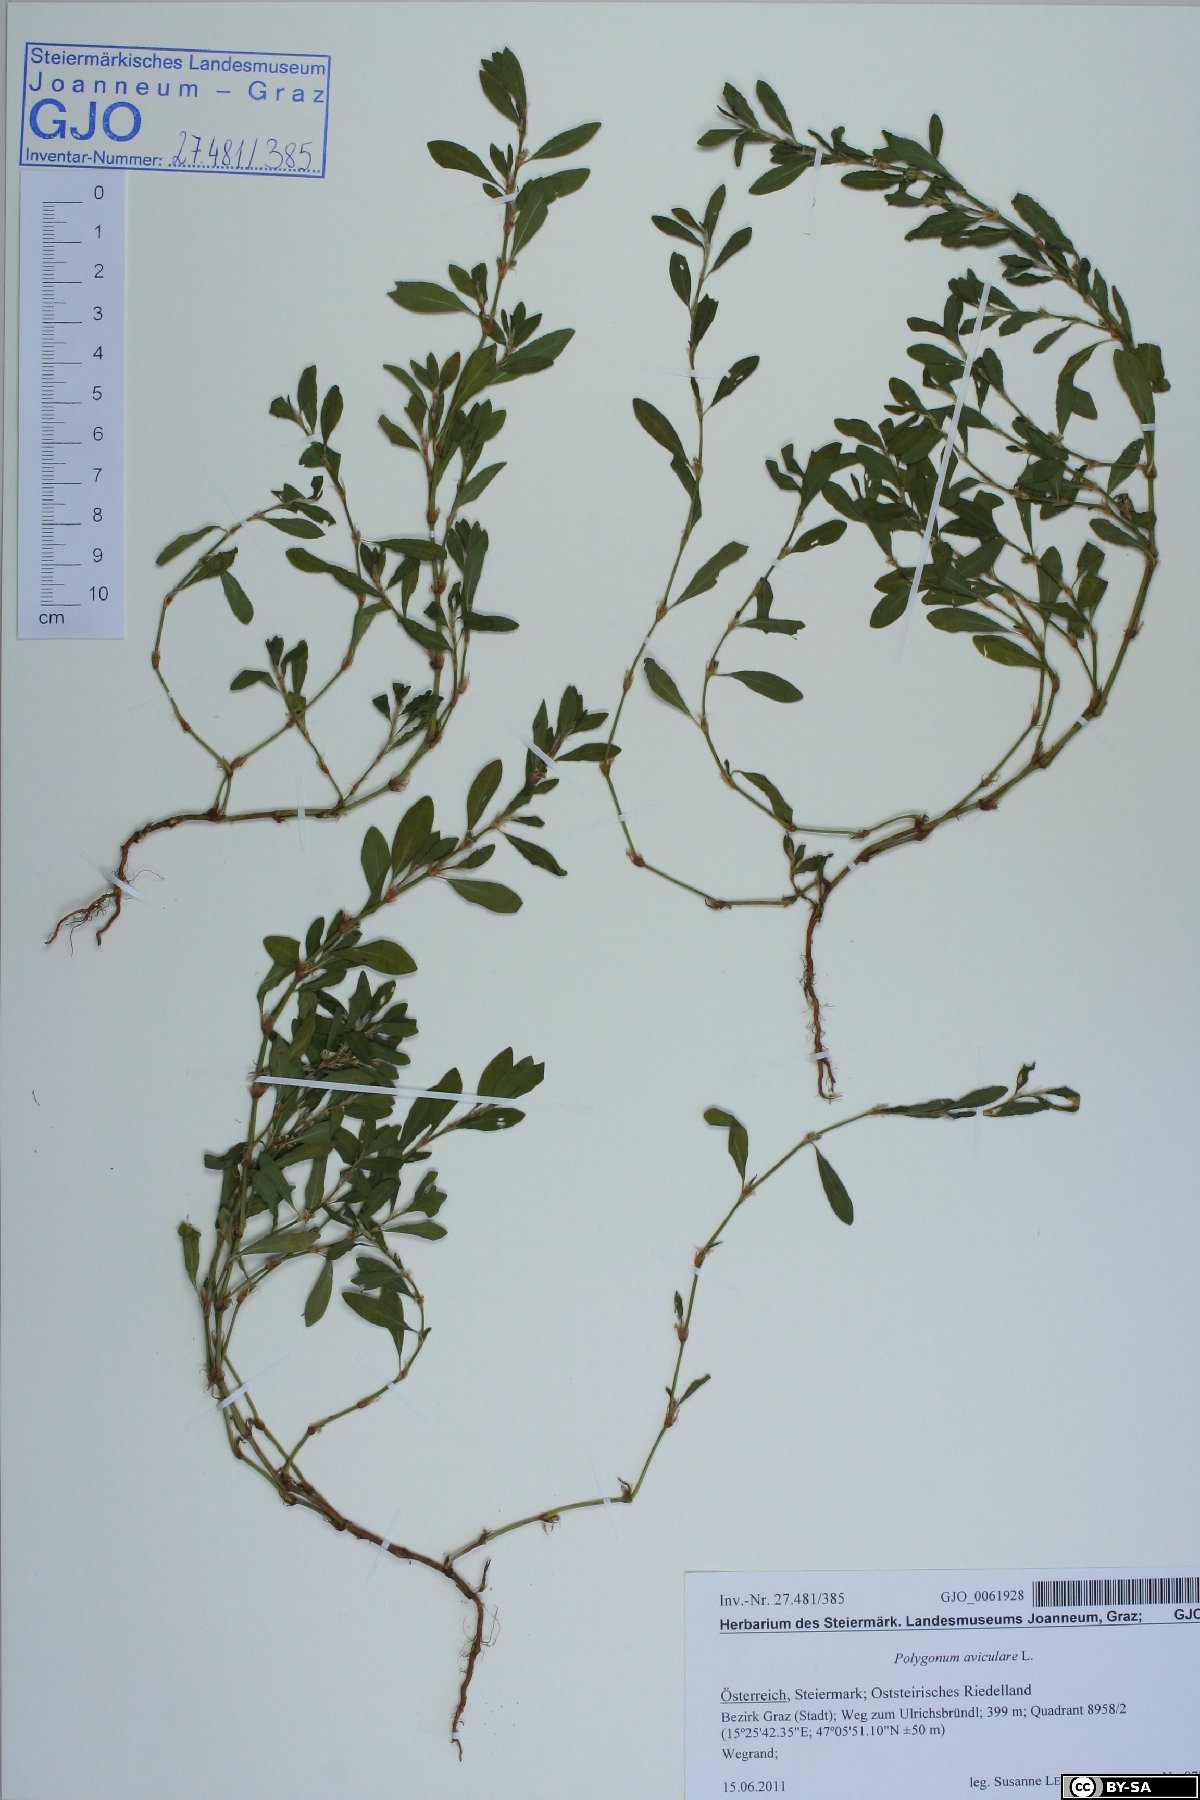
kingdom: Plantae
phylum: Tracheophyta
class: Magnoliopsida
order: Caryophyllales
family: Polygonaceae
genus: Polygonum
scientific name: Polygonum aviculare
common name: Prostrate knotweed
